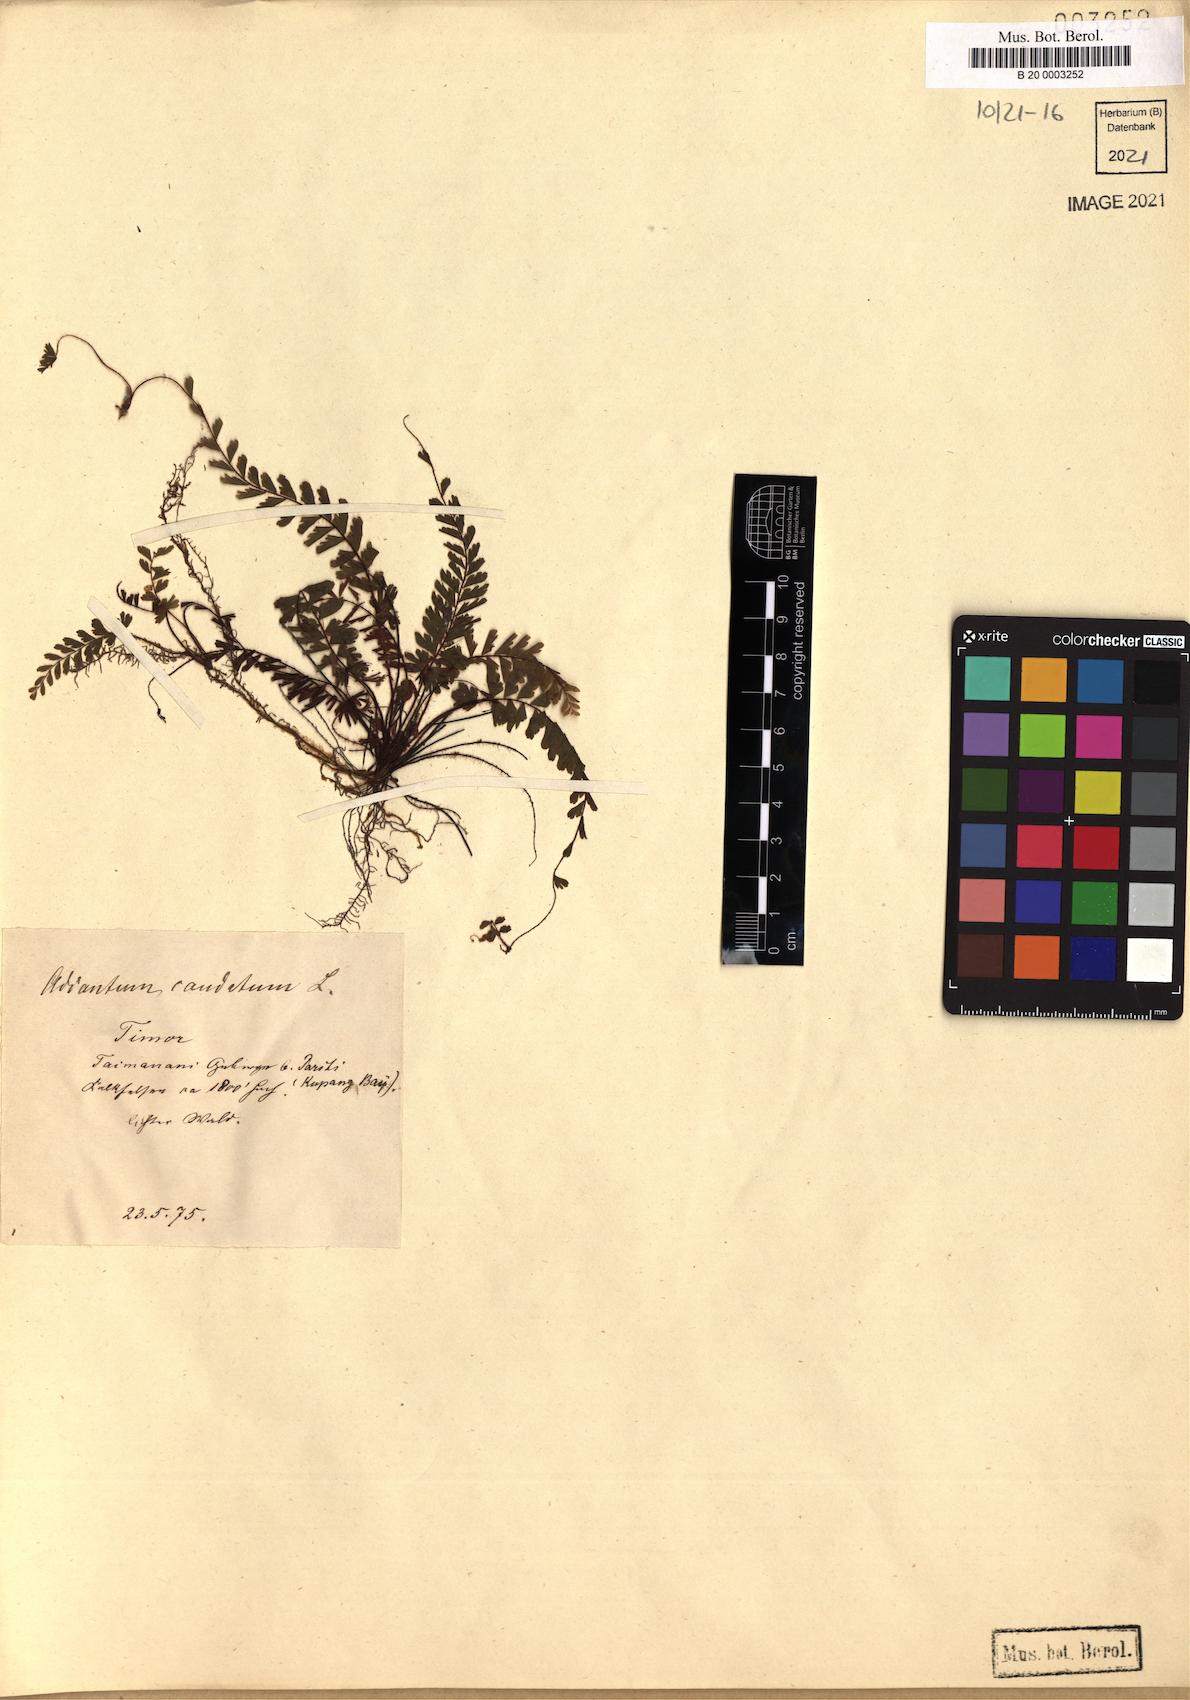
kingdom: Plantae
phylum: Tracheophyta
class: Polypodiopsida
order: Polypodiales
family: Pteridaceae
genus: Adiantum
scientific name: Adiantum caudatum
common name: Tailed maidenhair
